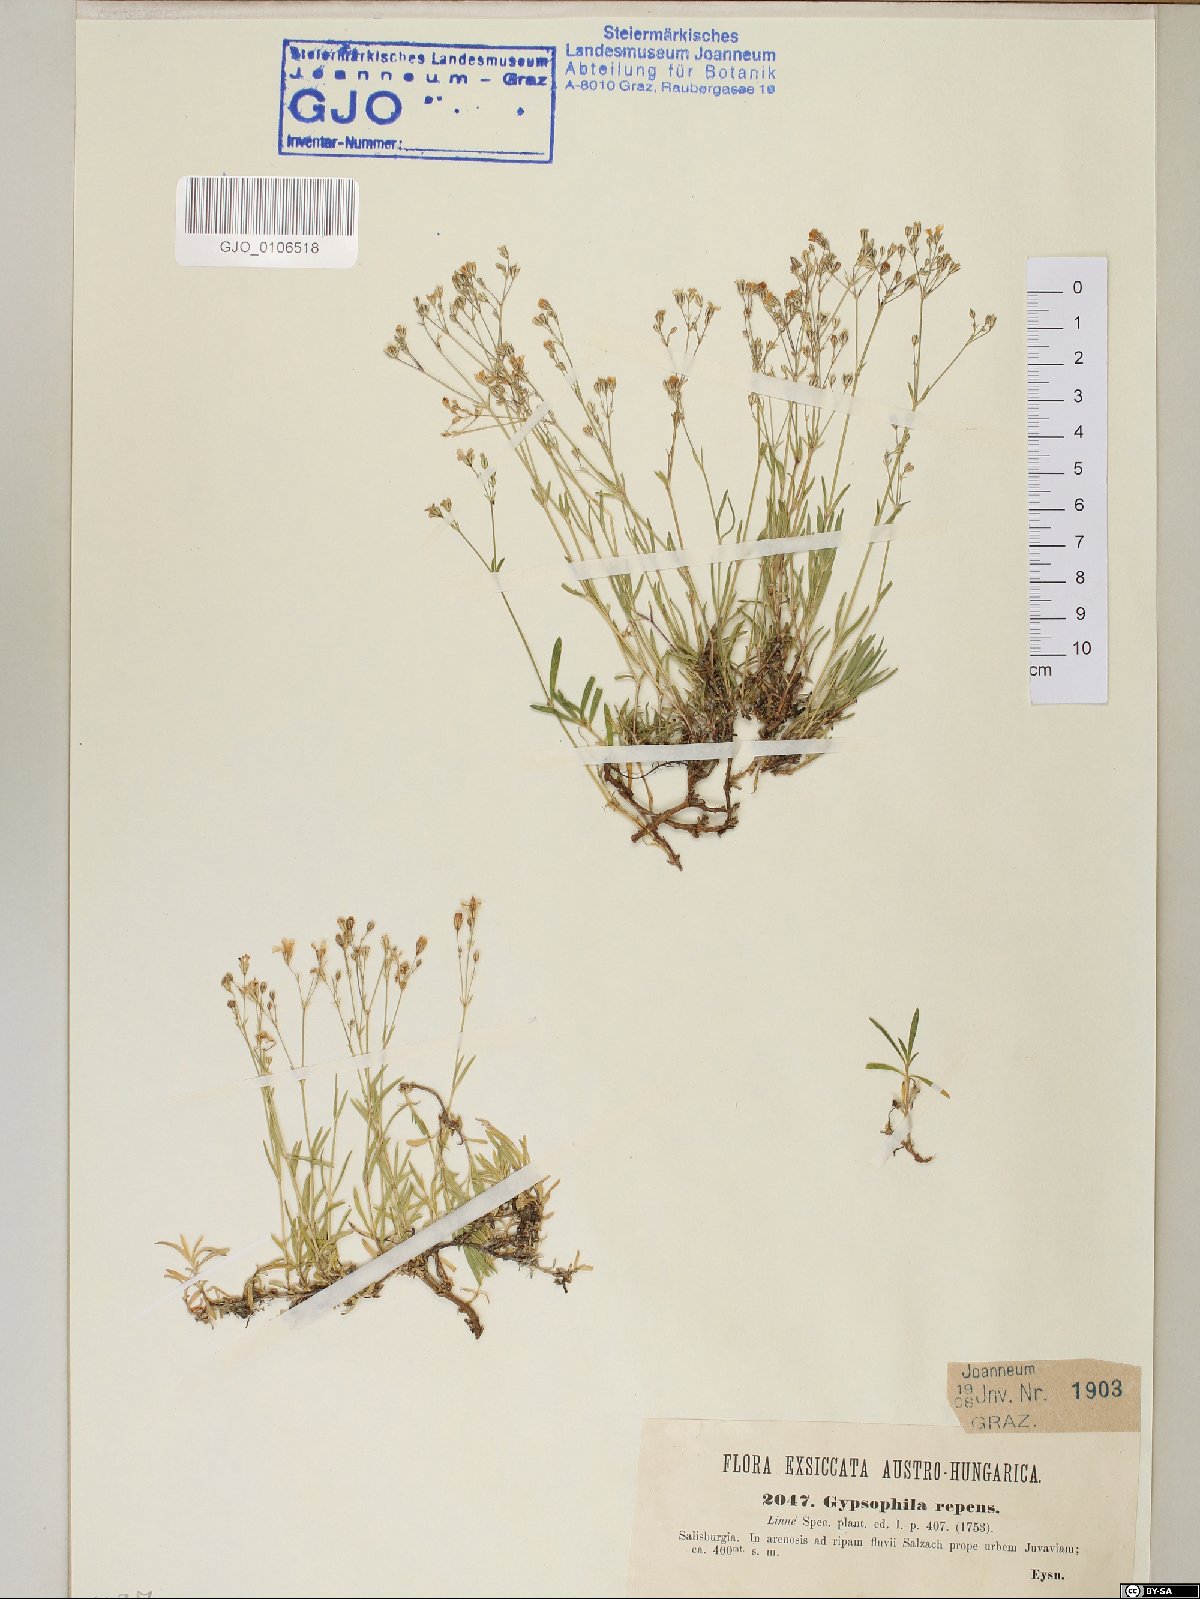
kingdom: Plantae
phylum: Tracheophyta
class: Magnoliopsida
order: Caryophyllales
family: Caryophyllaceae
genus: Gypsophila
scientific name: Gypsophila repens
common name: Creeping baby's-breath
